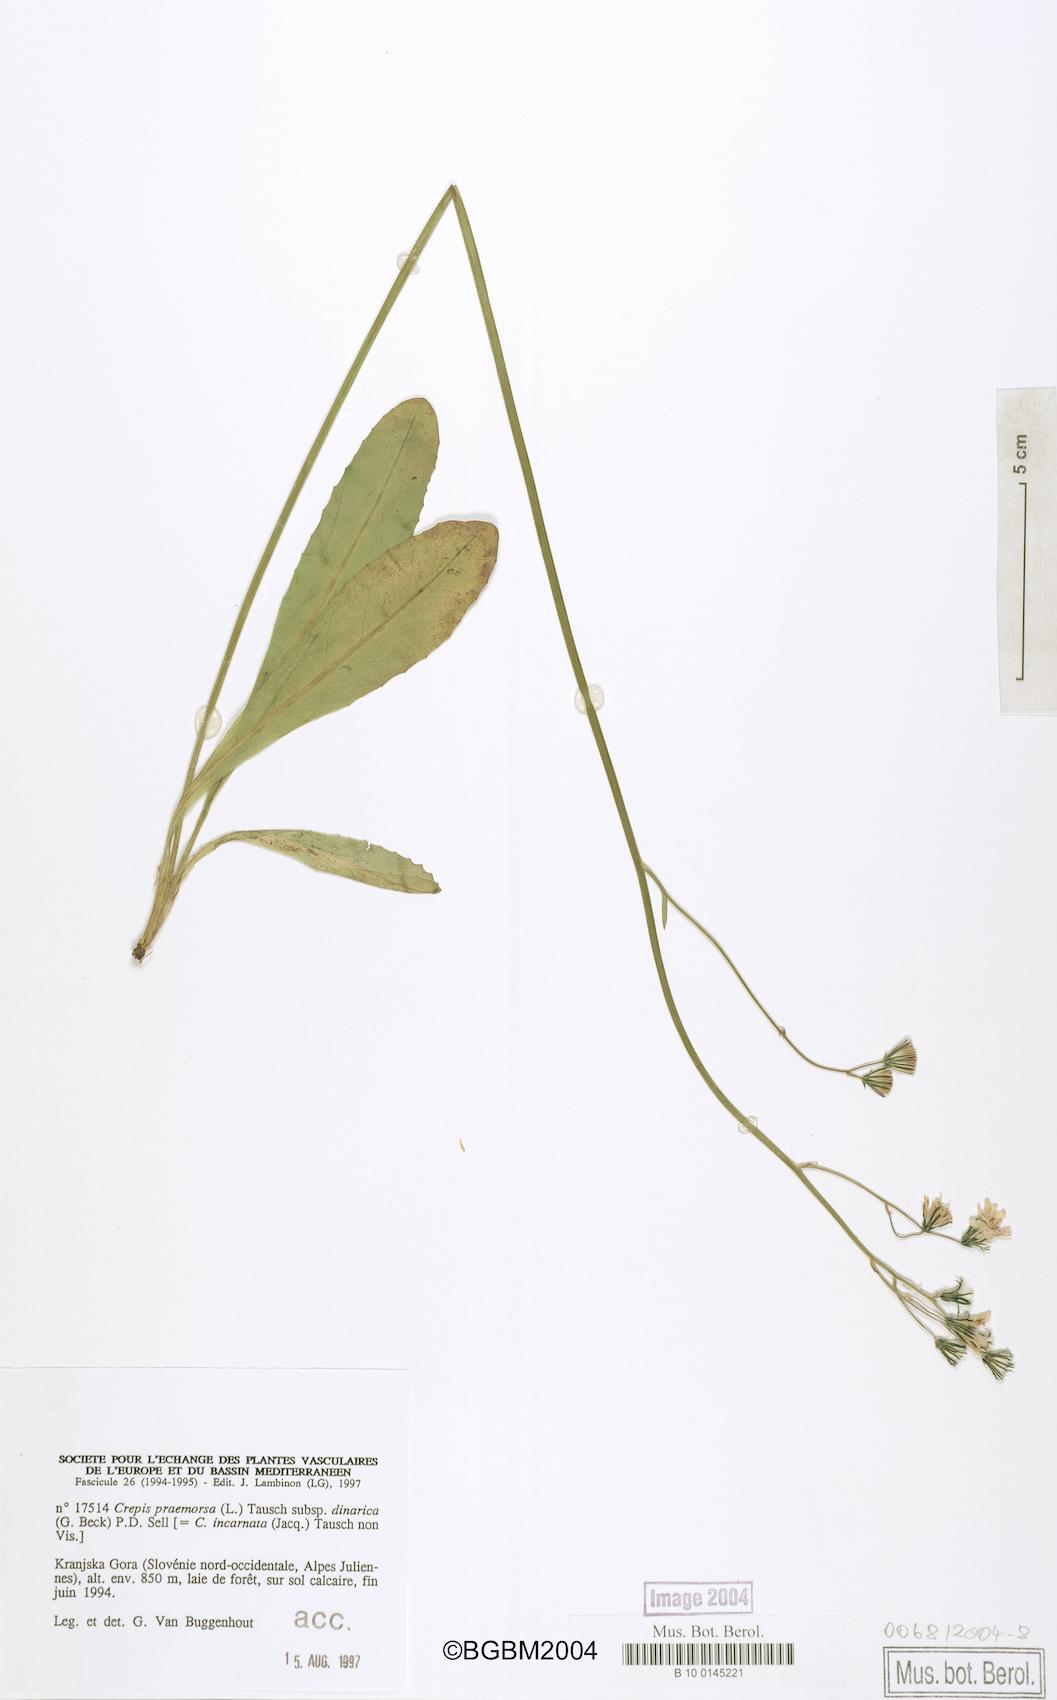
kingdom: Plantae
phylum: Tracheophyta
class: Magnoliopsida
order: Asterales
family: Asteraceae
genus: Crepis
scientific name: Crepis praemorsa
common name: Leafless hawk's-beard
